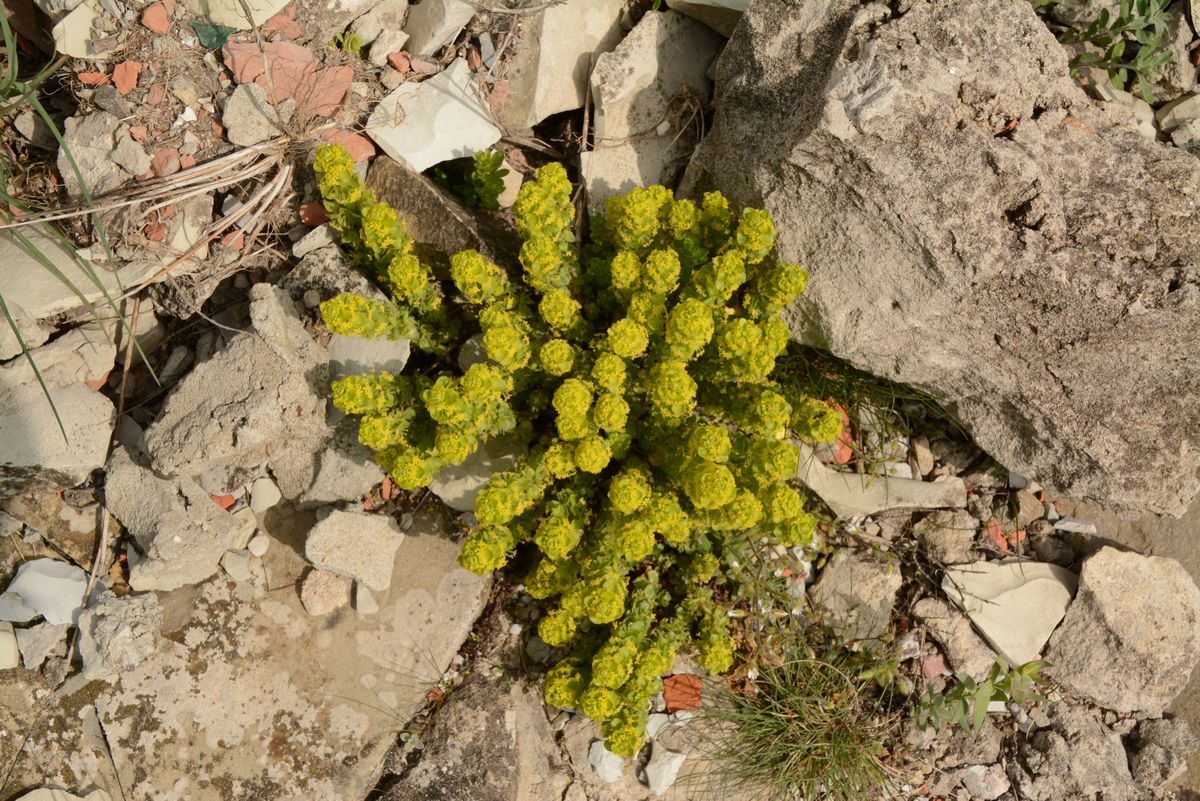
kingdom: Plantae
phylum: Tracheophyta
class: Magnoliopsida
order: Saxifragales
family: Crassulaceae
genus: Sedum
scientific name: Sedum
